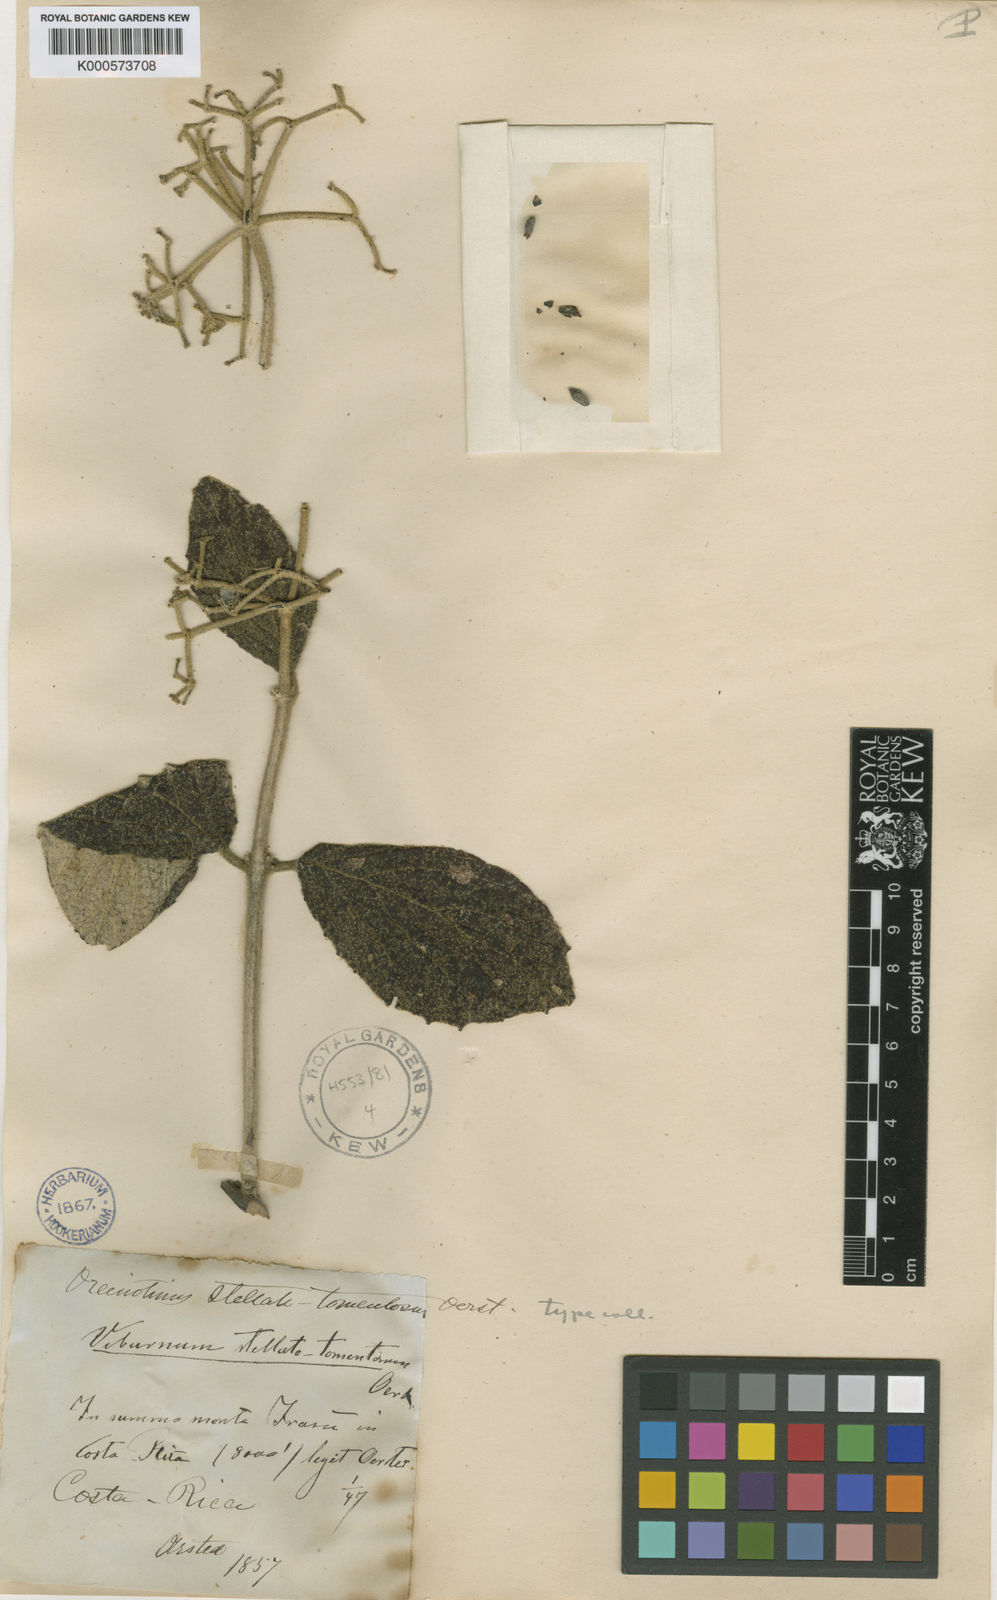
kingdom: Plantae
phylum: Tracheophyta
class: Magnoliopsida
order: Dipsacales
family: Viburnaceae
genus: Viburnum
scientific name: Viburnum stellatotomentosum
